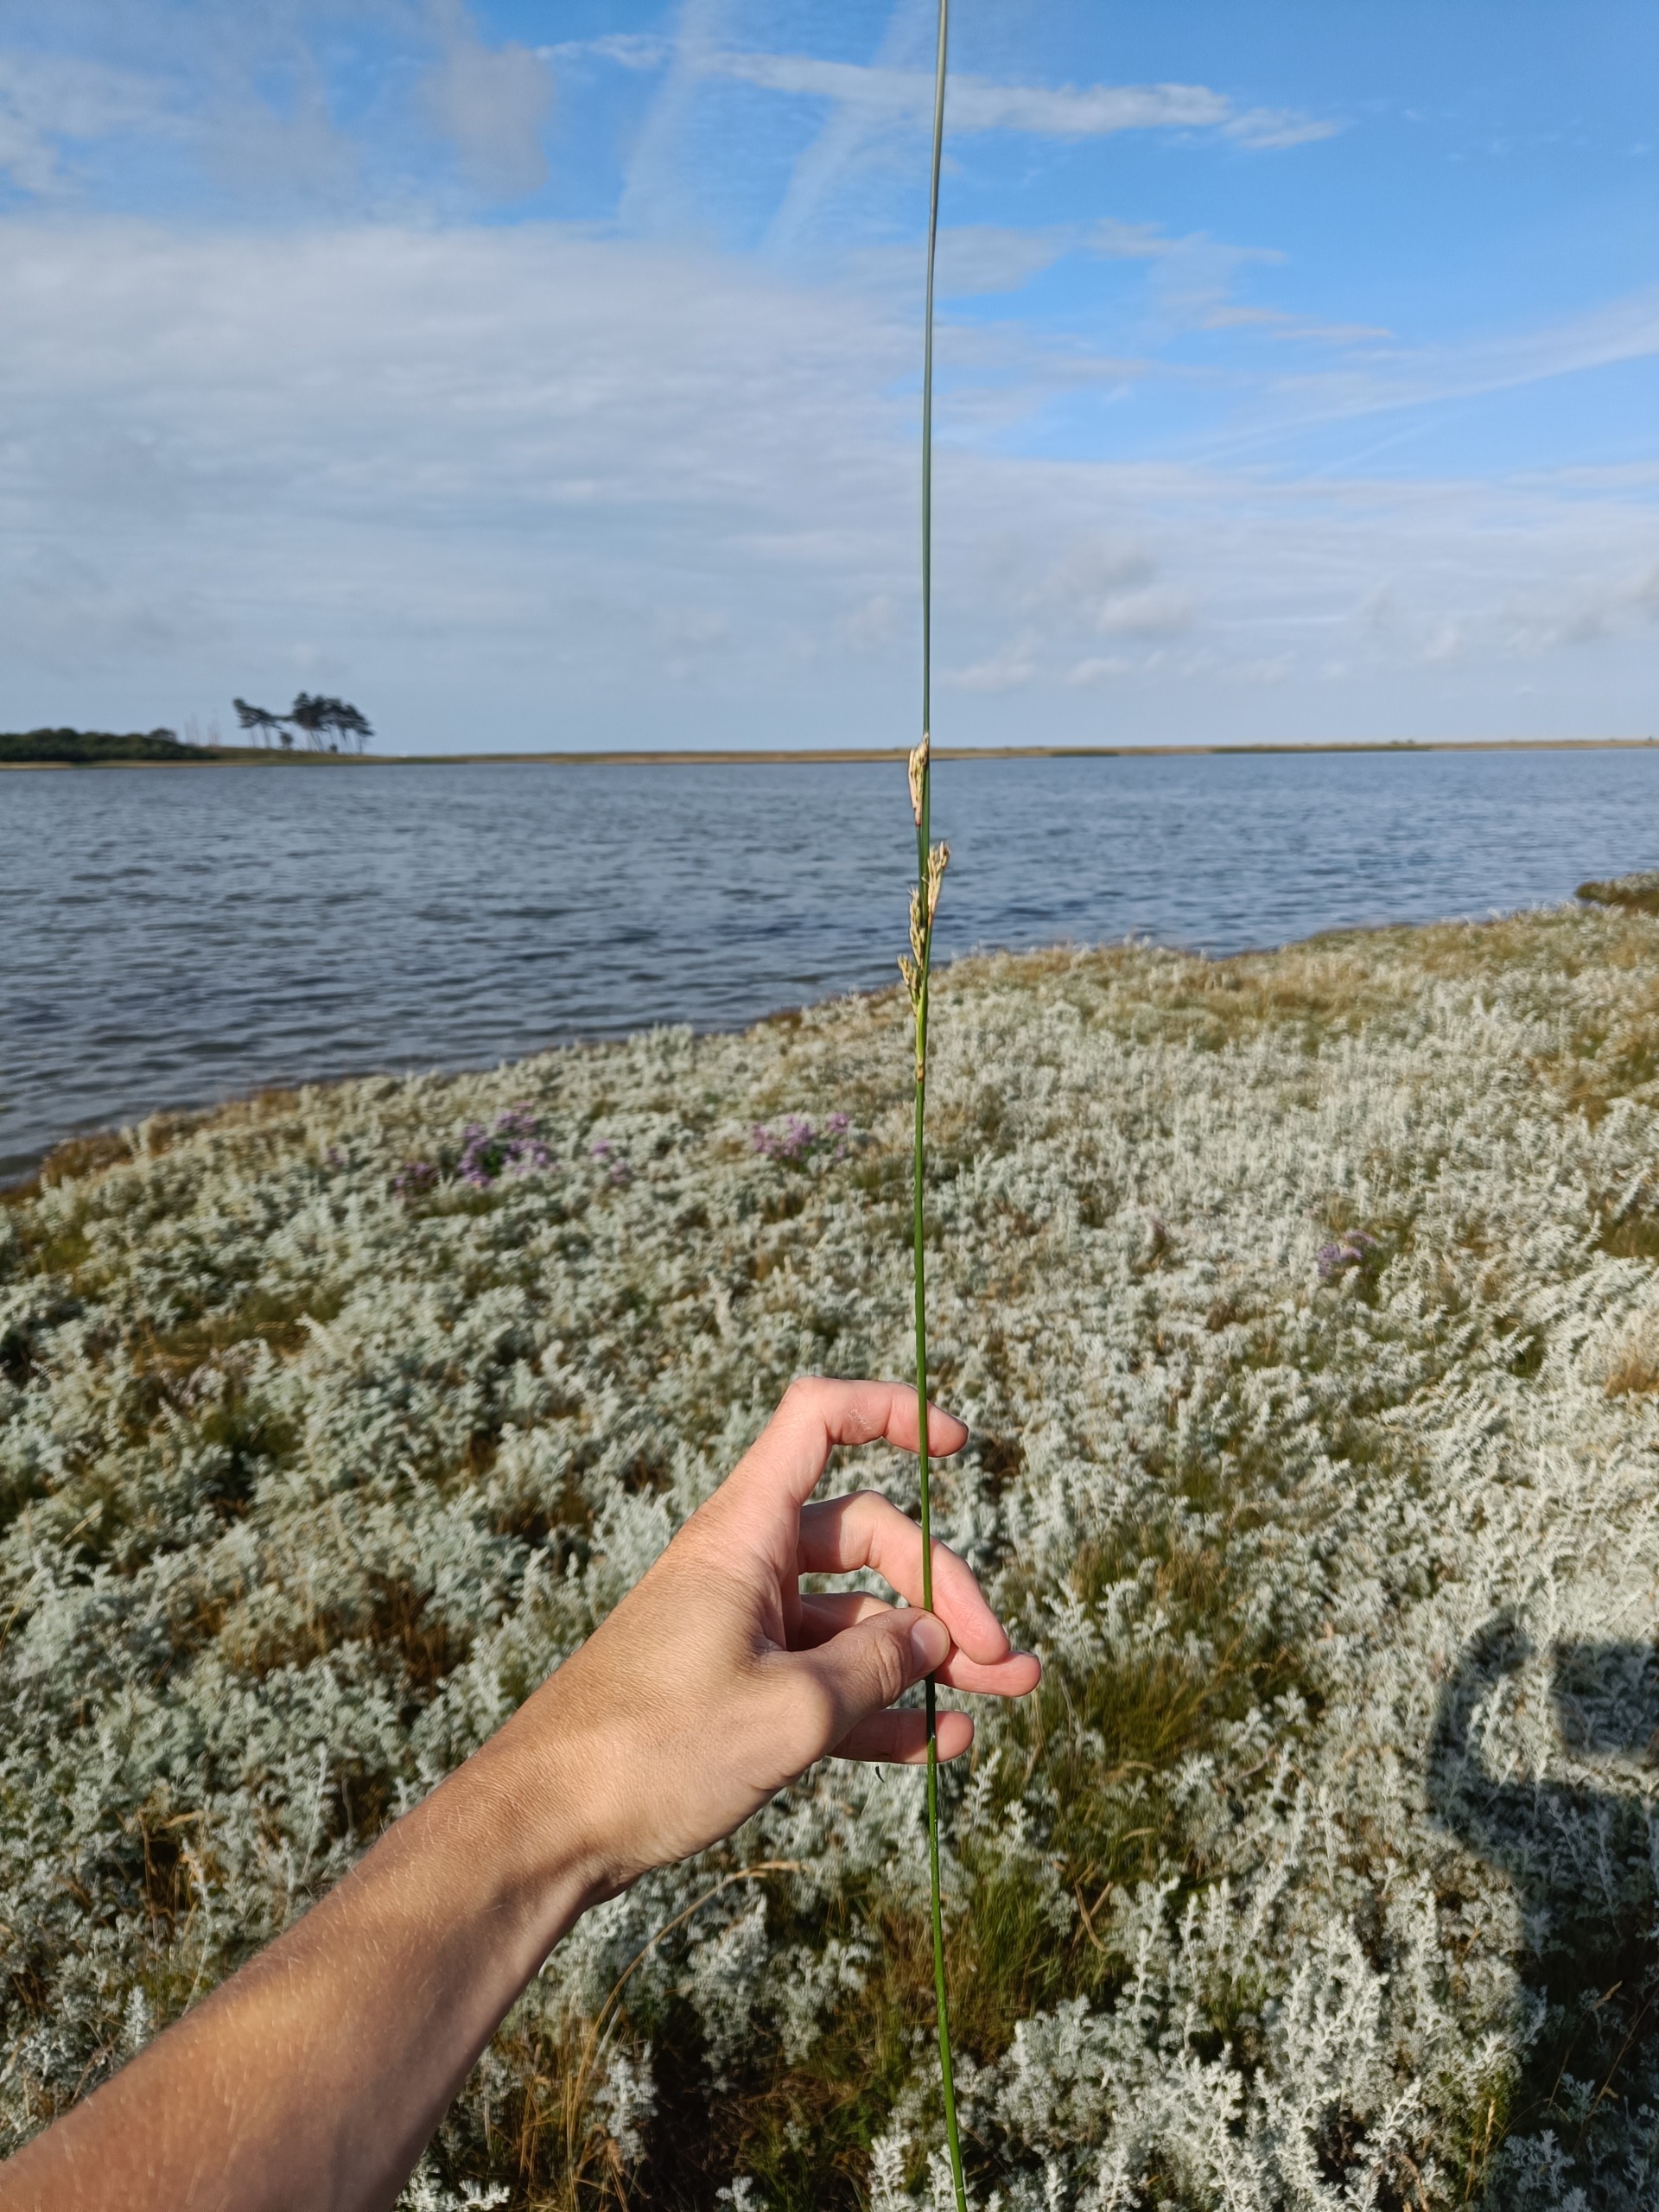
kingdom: Plantae
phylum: Tracheophyta
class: Liliopsida
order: Poales
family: Juncaceae
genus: Juncus
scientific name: Juncus maritimus
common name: Strand-siv
